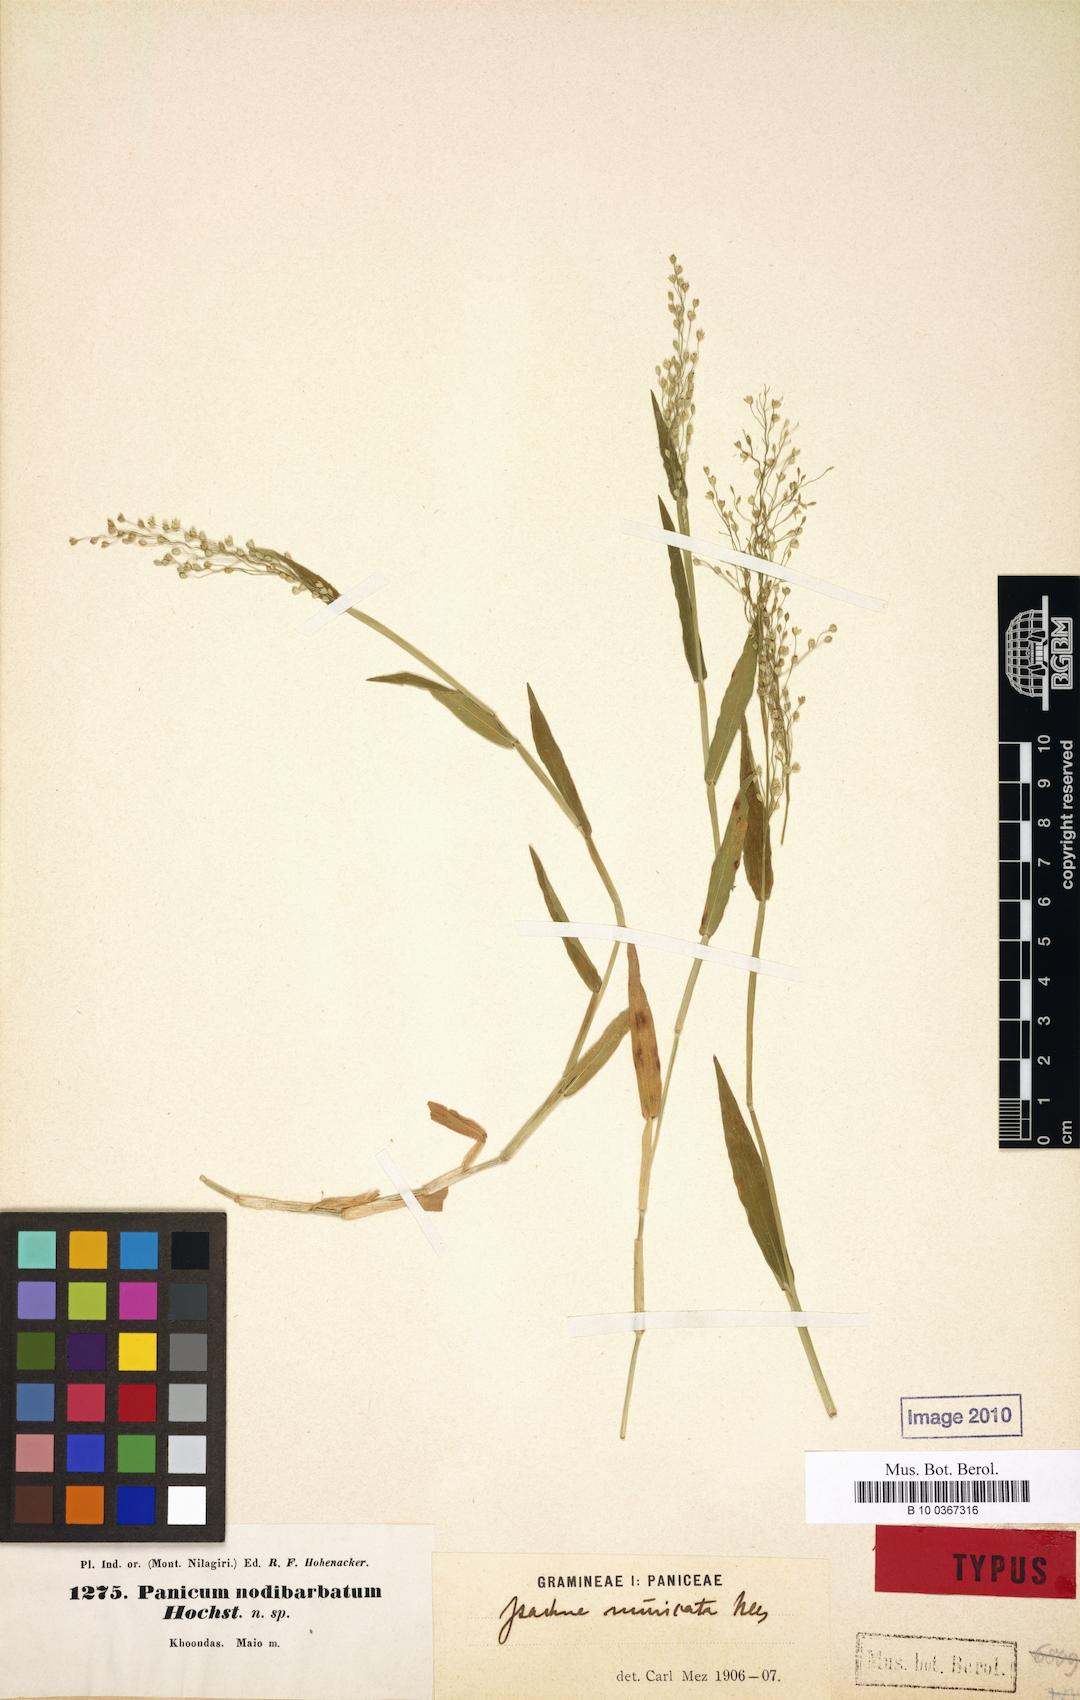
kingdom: Plantae
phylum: Tracheophyta
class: Liliopsida
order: Poales
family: Poaceae
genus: Isachne
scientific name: Isachne globosa
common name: Swamp millet
